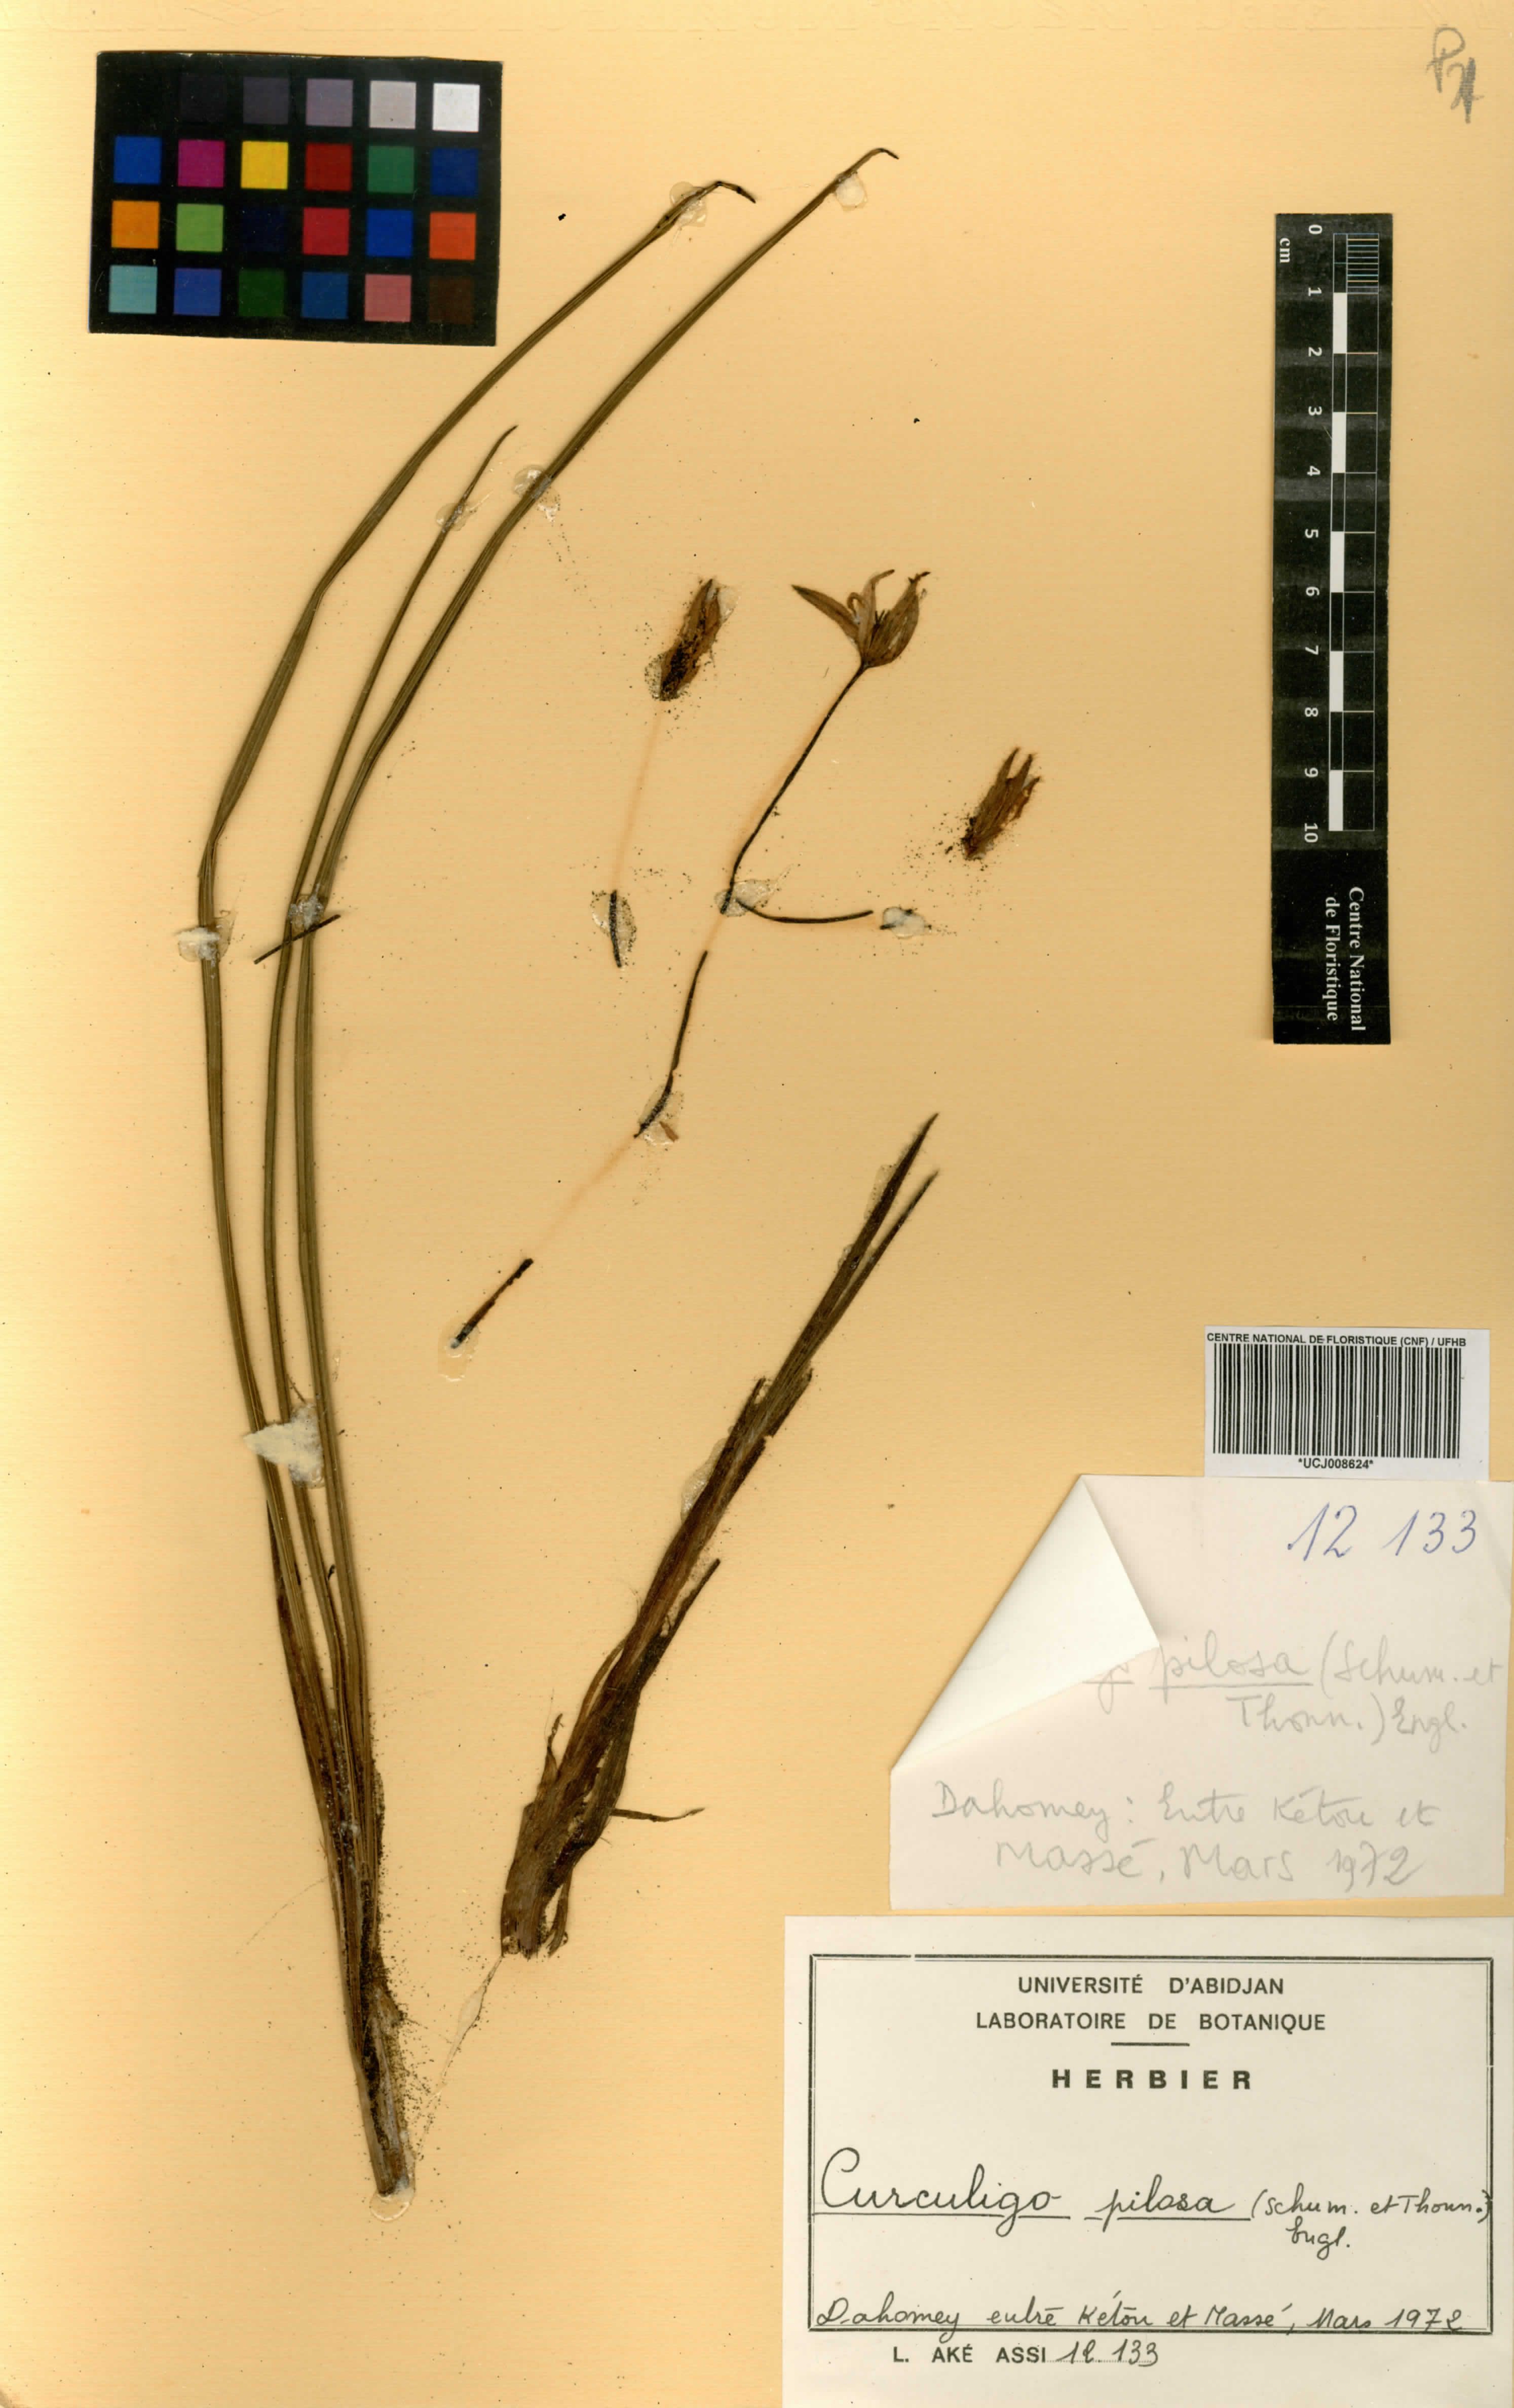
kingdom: Plantae
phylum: Tracheophyta
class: Liliopsida
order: Asparagales
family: Hypoxidaceae
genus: Curculigo
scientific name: Curculigo pilosa
